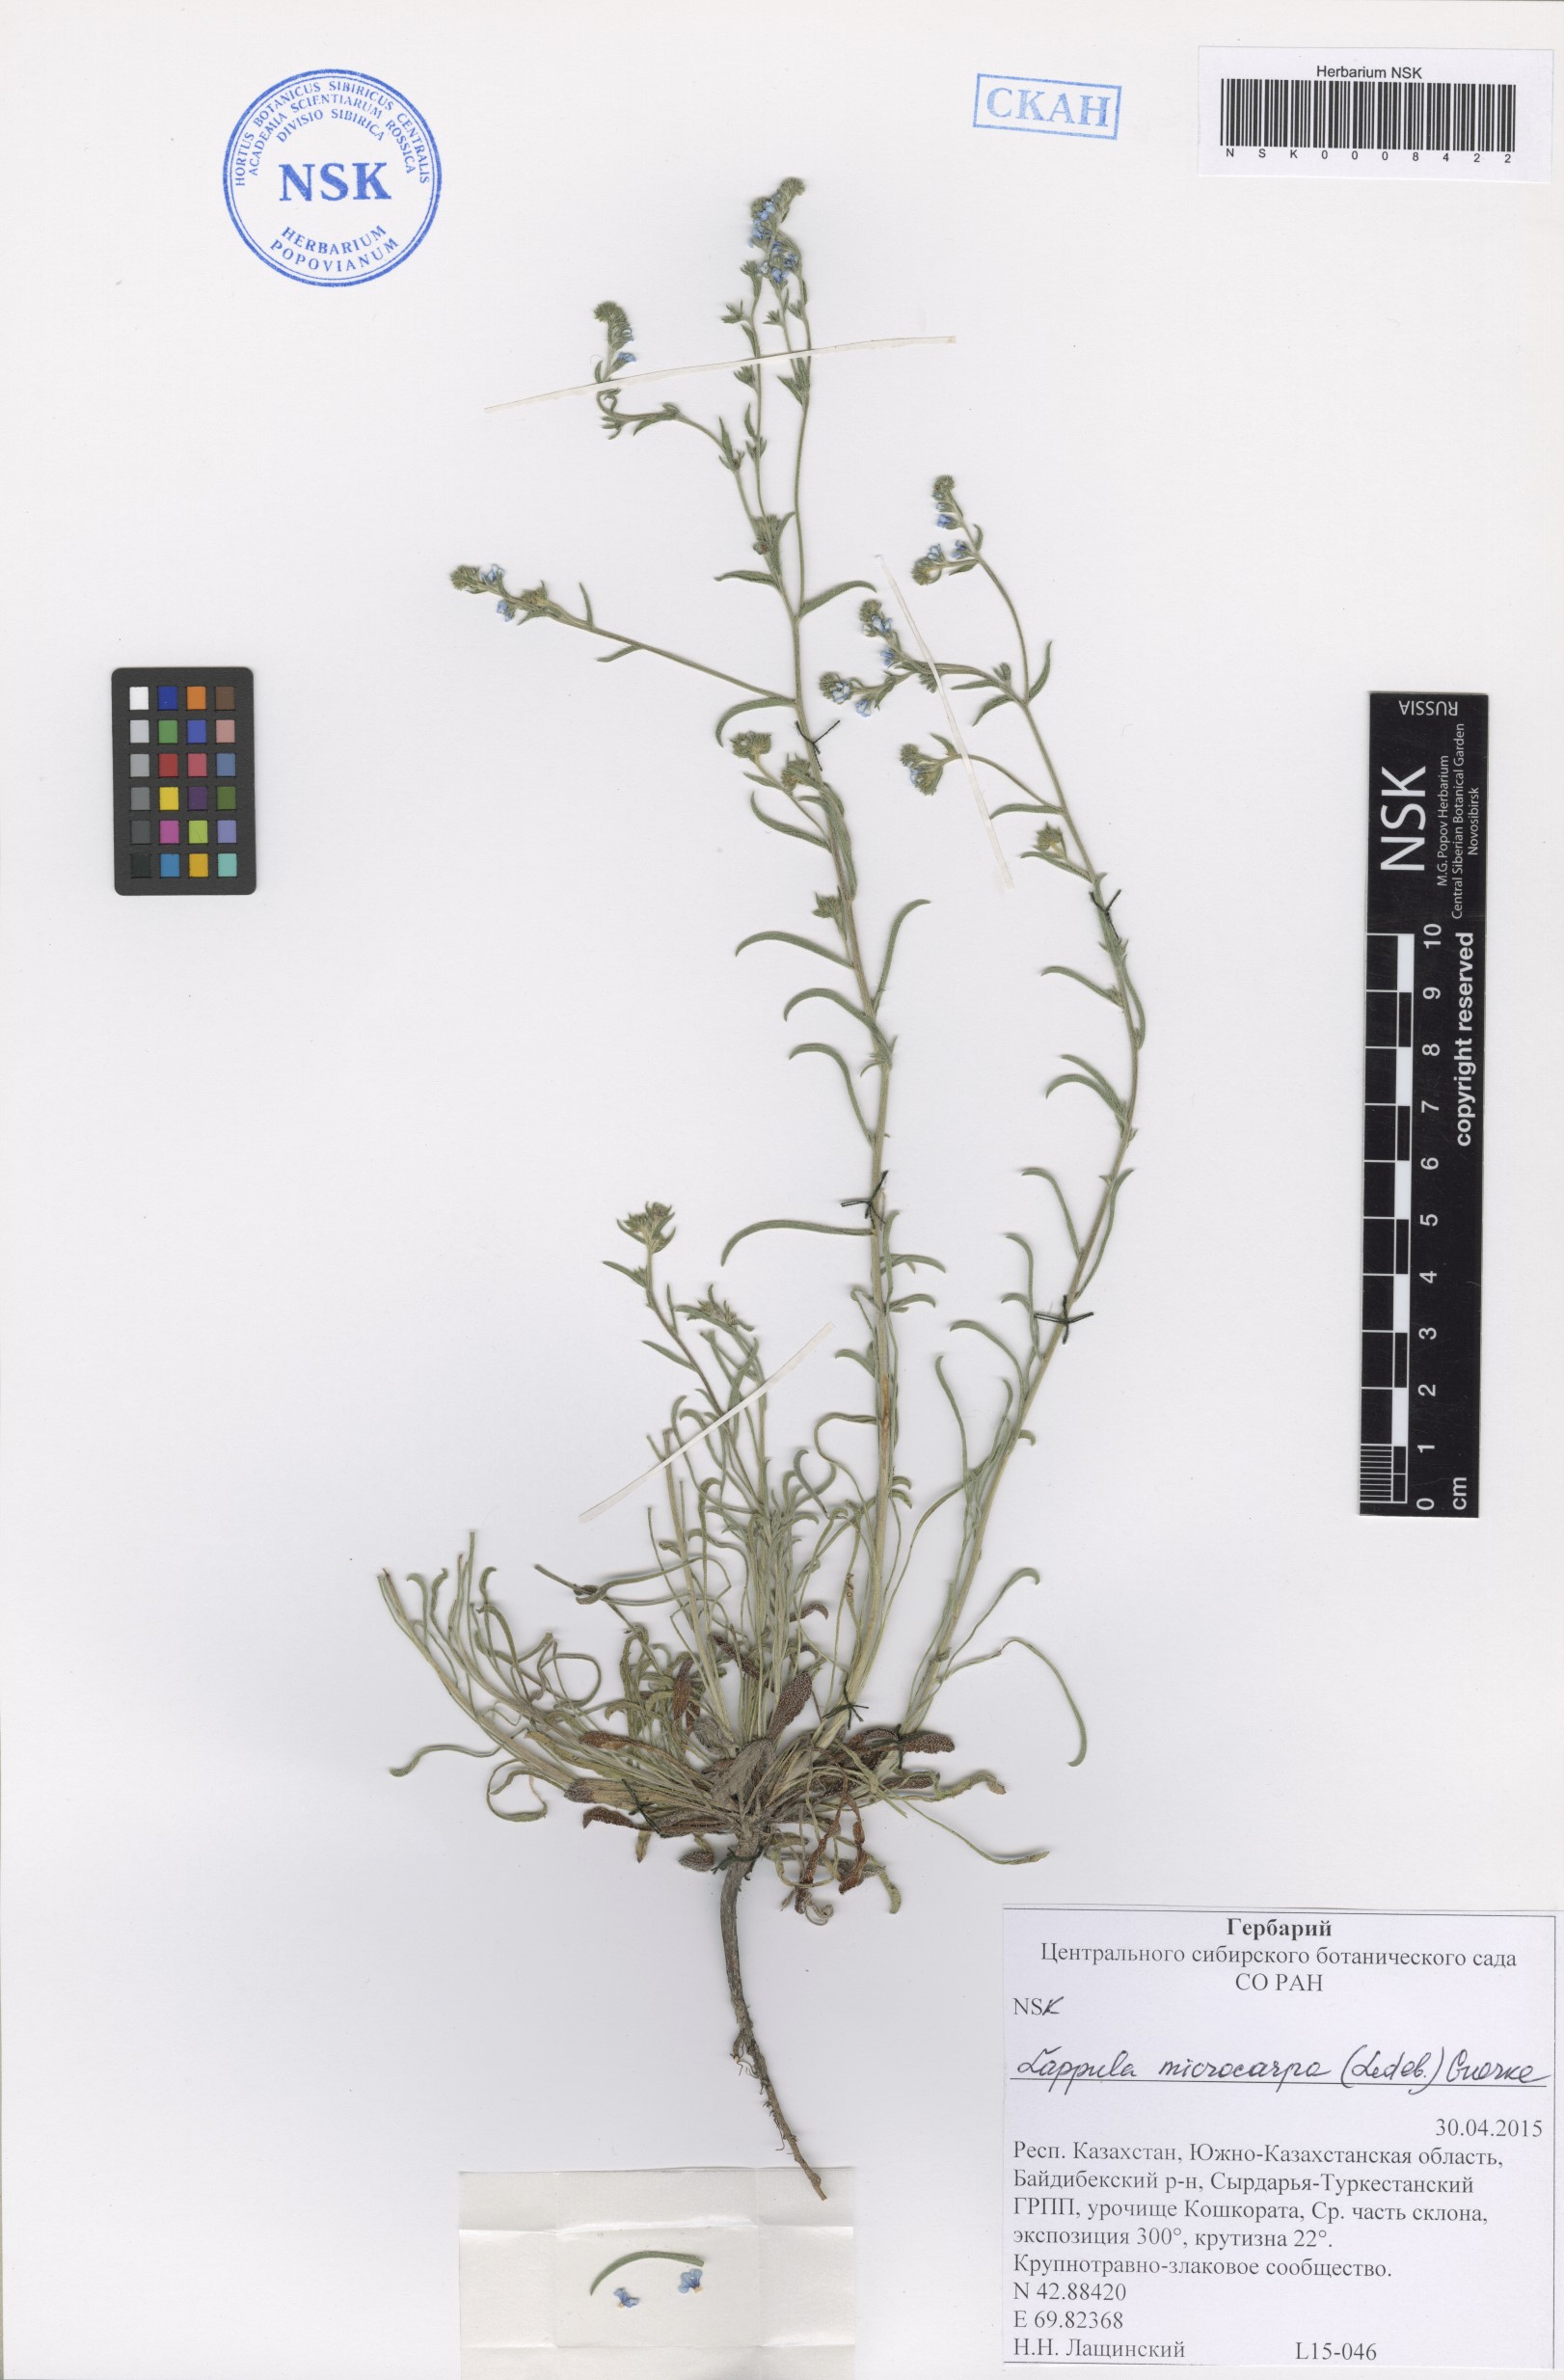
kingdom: Plantae
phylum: Tracheophyta
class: Magnoliopsida
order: Boraginales
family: Boraginaceae
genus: Lappula
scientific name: Lappula microcarpa
